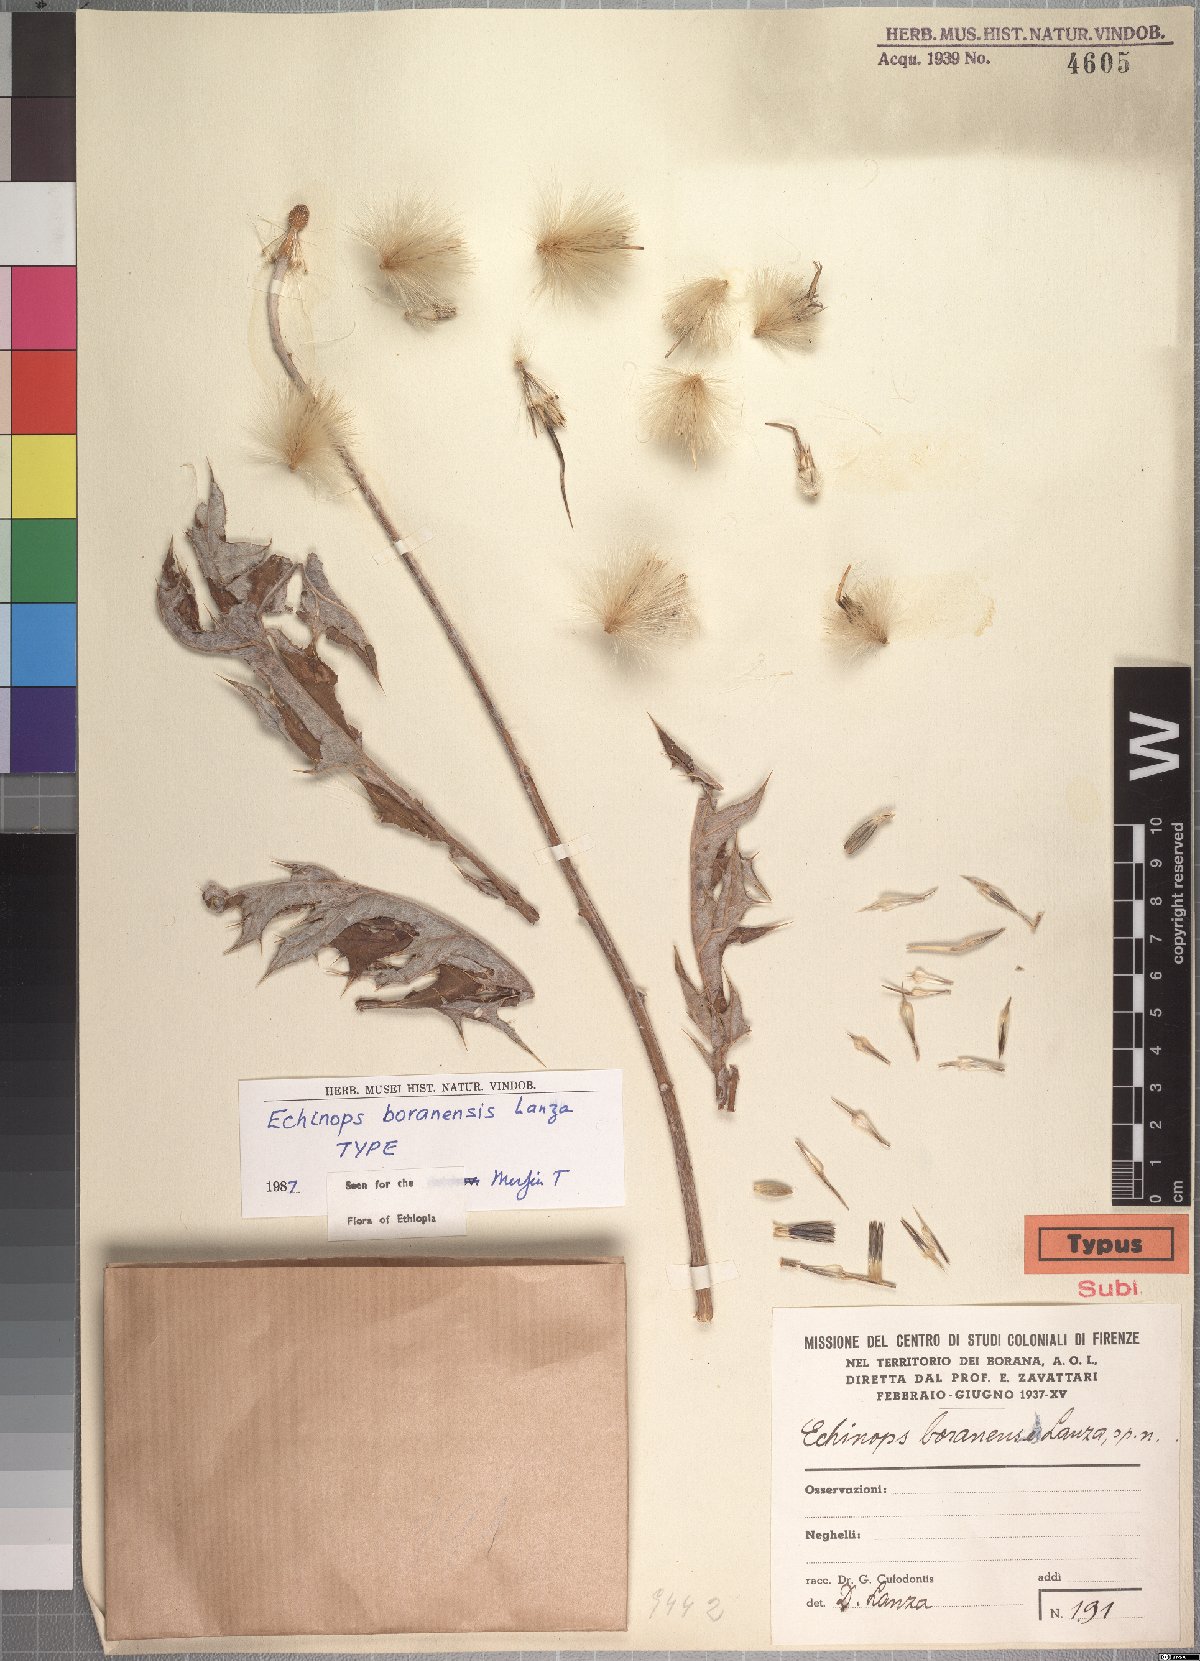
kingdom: Plantae
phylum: Tracheophyta
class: Magnoliopsida
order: Asterales
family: Asteraceae
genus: Echinops
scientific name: Echinops pappii
